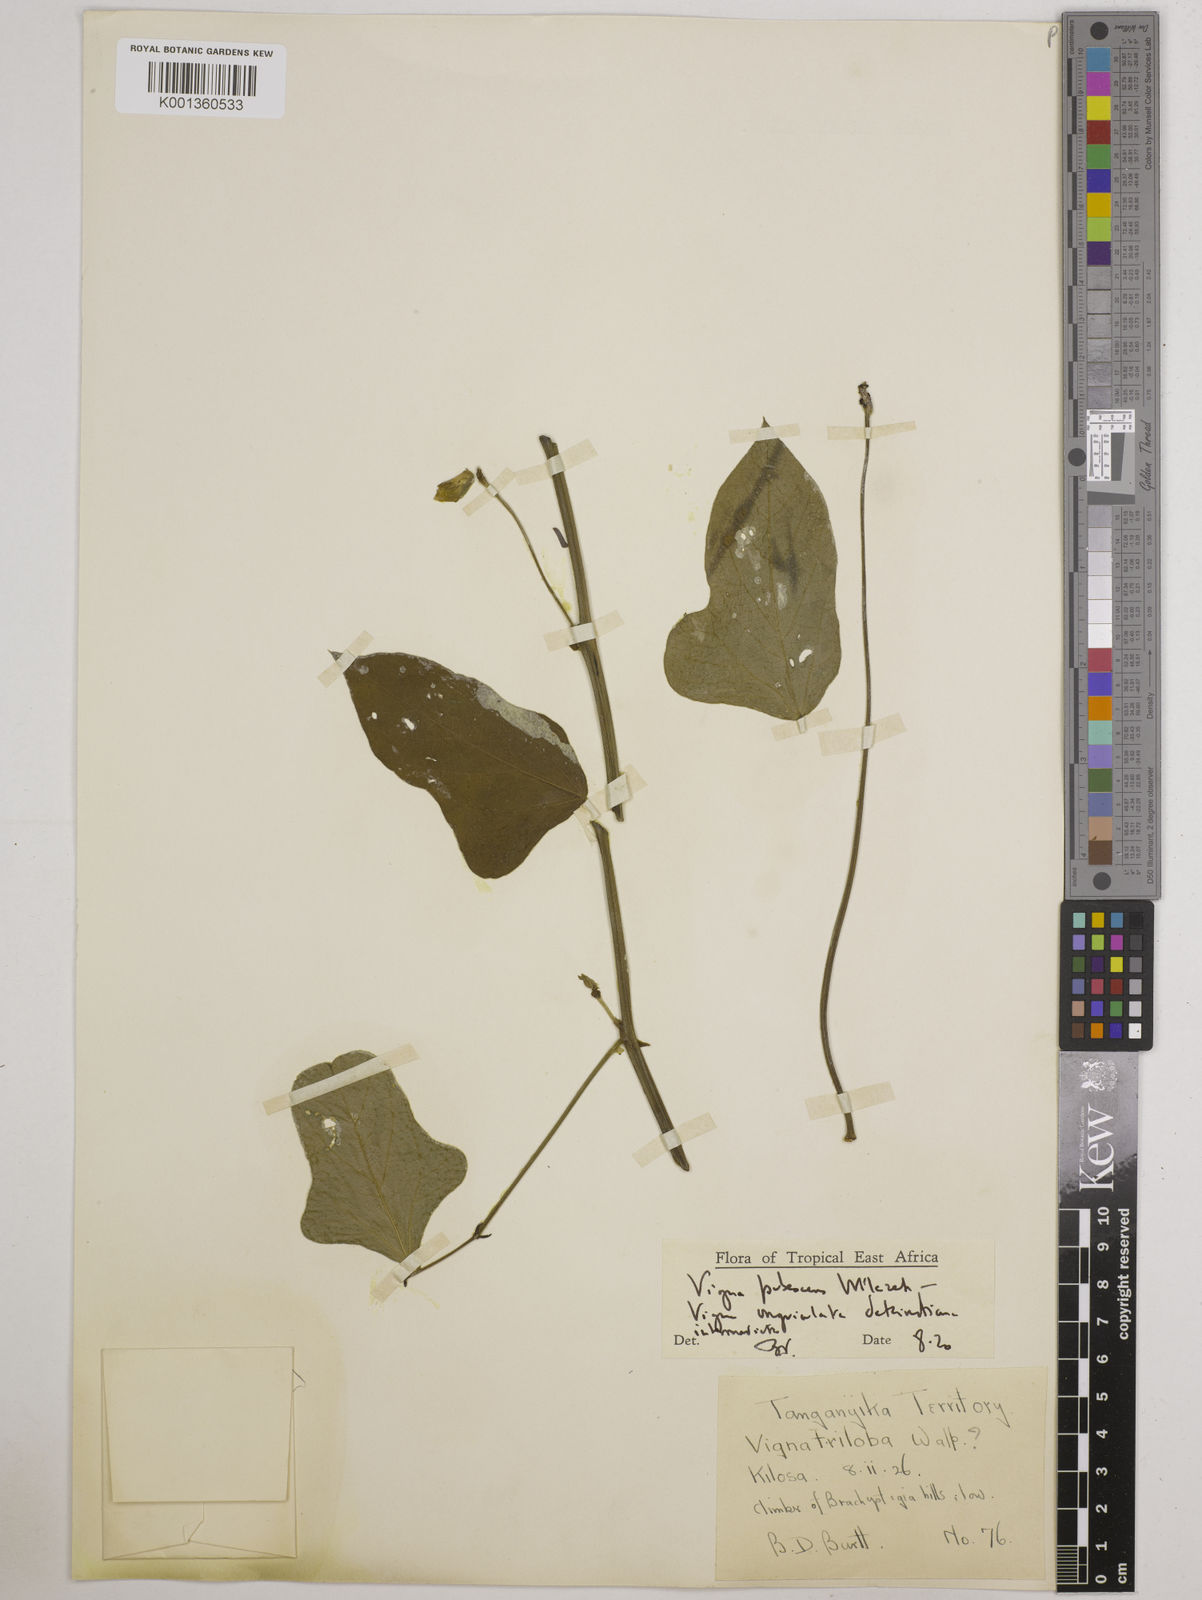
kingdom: Plantae
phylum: Tracheophyta
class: Magnoliopsida
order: Fabales
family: Fabaceae
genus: Vigna
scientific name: Vigna unguiculata
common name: Cowpea
